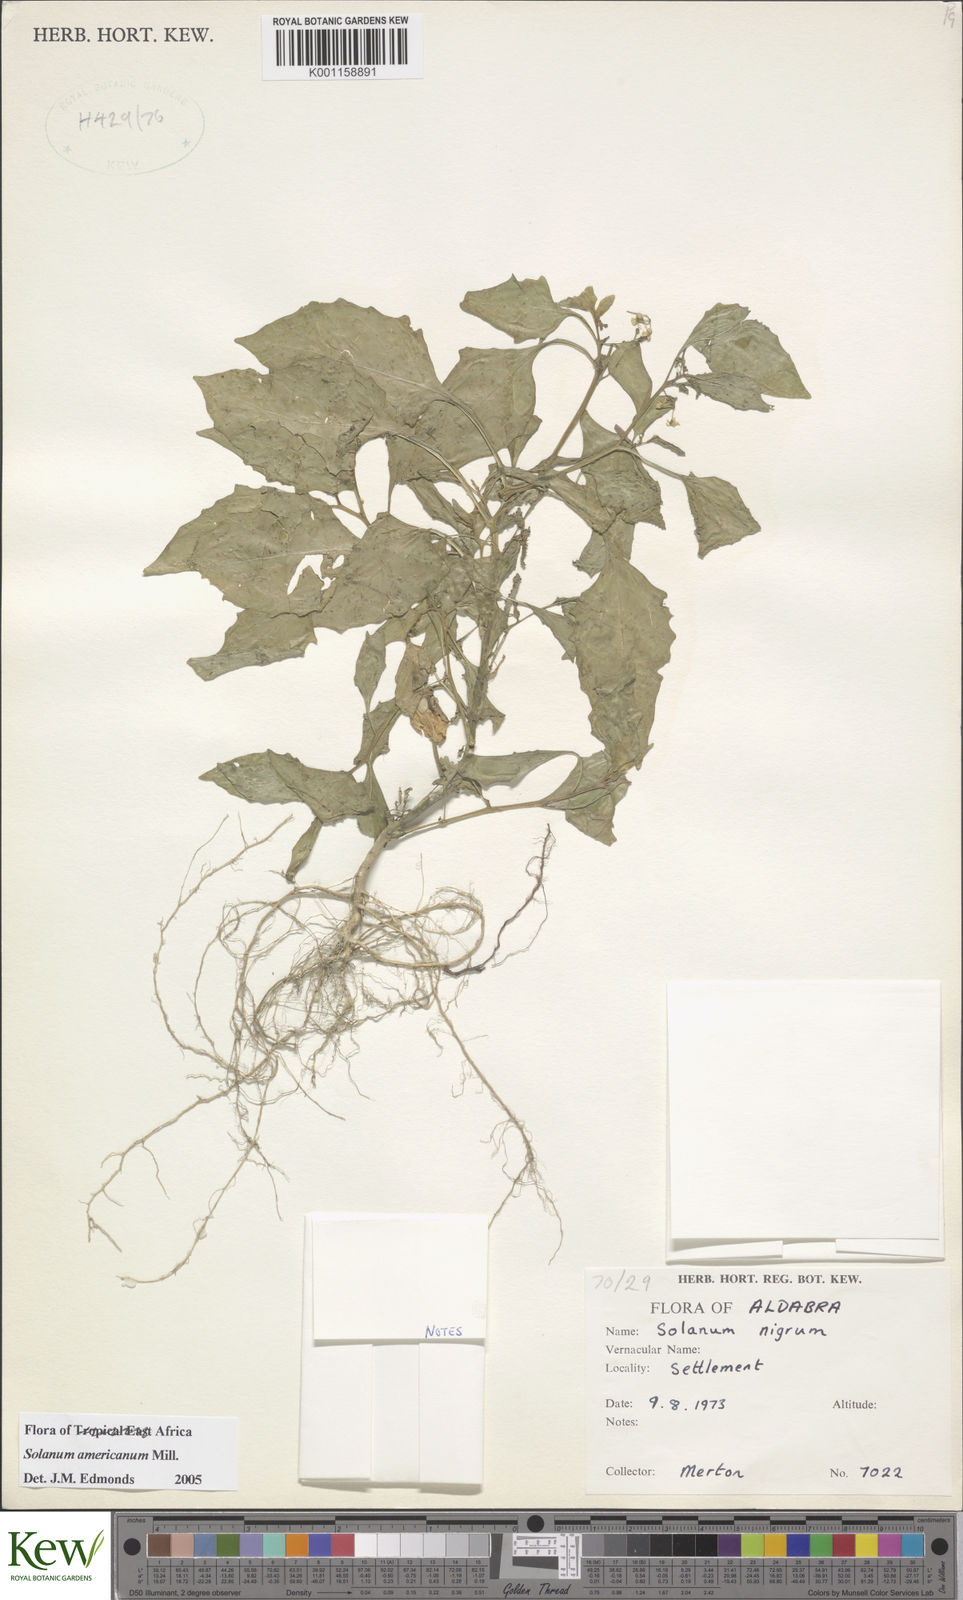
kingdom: Plantae
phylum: Tracheophyta
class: Magnoliopsida
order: Solanales
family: Solanaceae
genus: Solanum
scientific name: Solanum americanum
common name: American black nightshade
